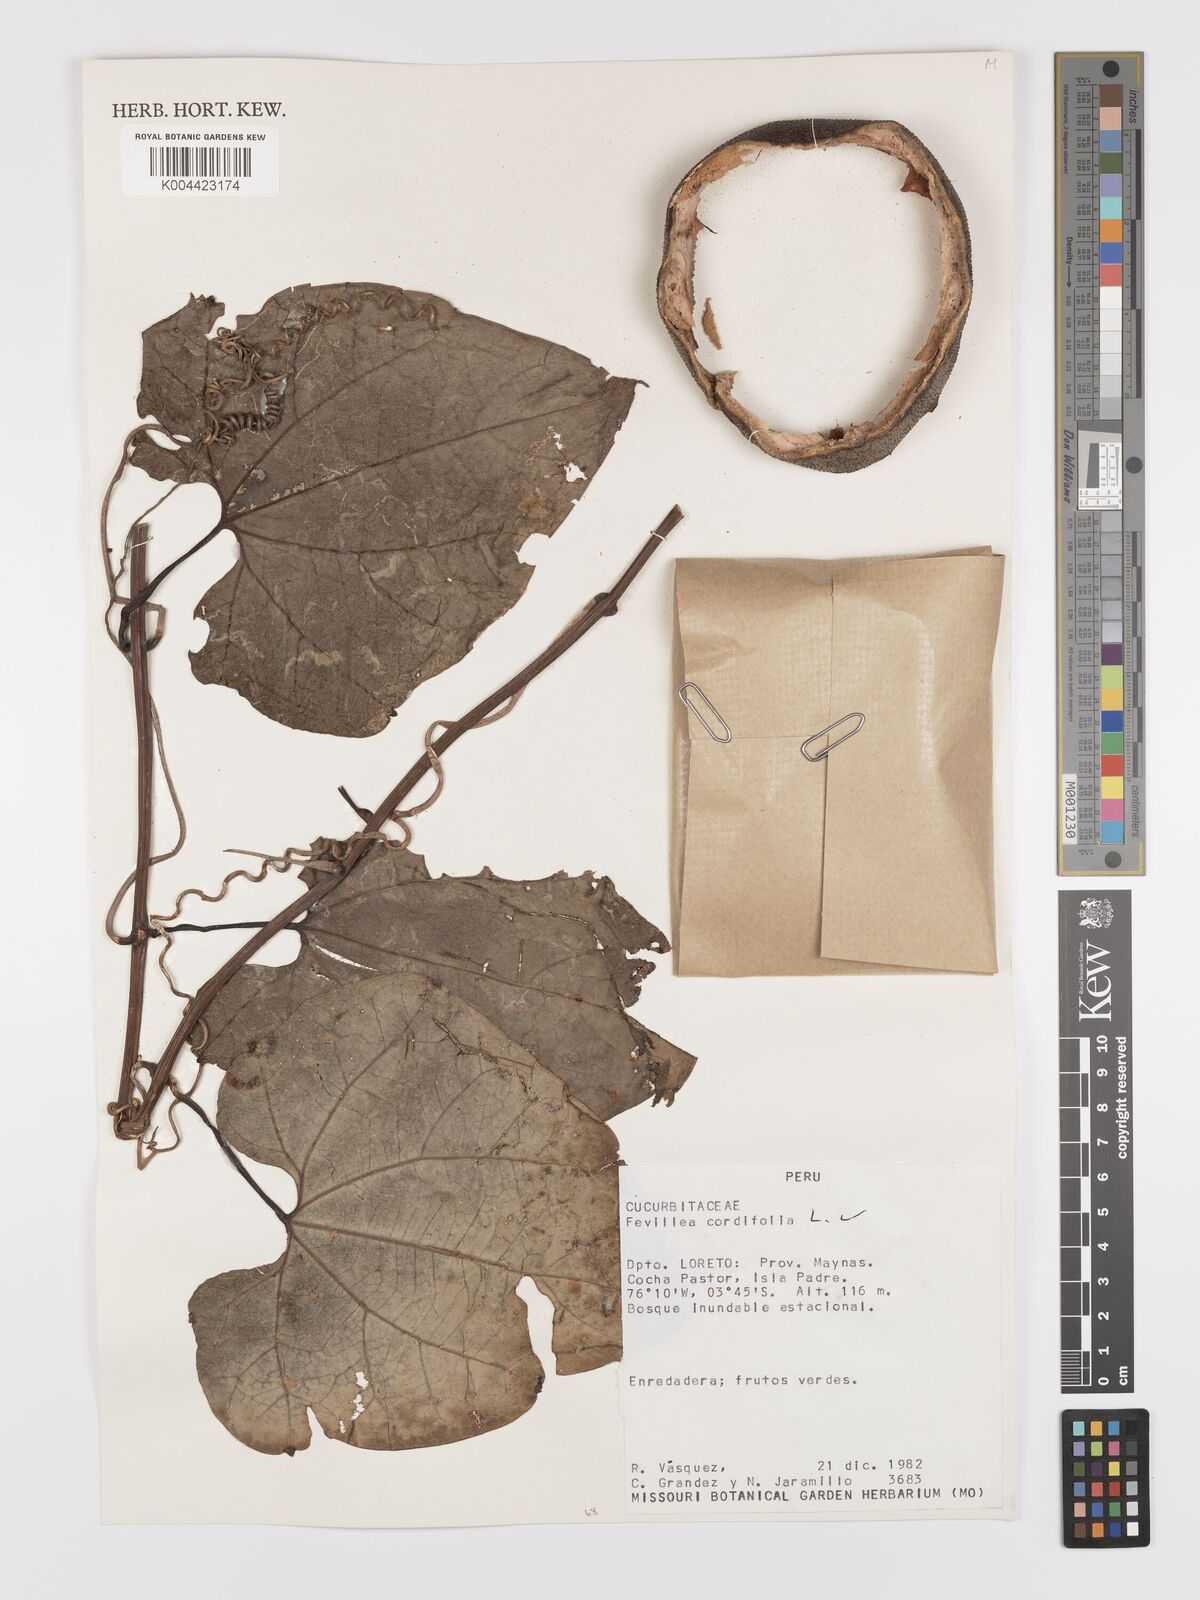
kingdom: Plantae
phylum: Tracheophyta
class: Magnoliopsida
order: Cucurbitales
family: Cucurbitaceae
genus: Fevillea
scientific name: Fevillea
